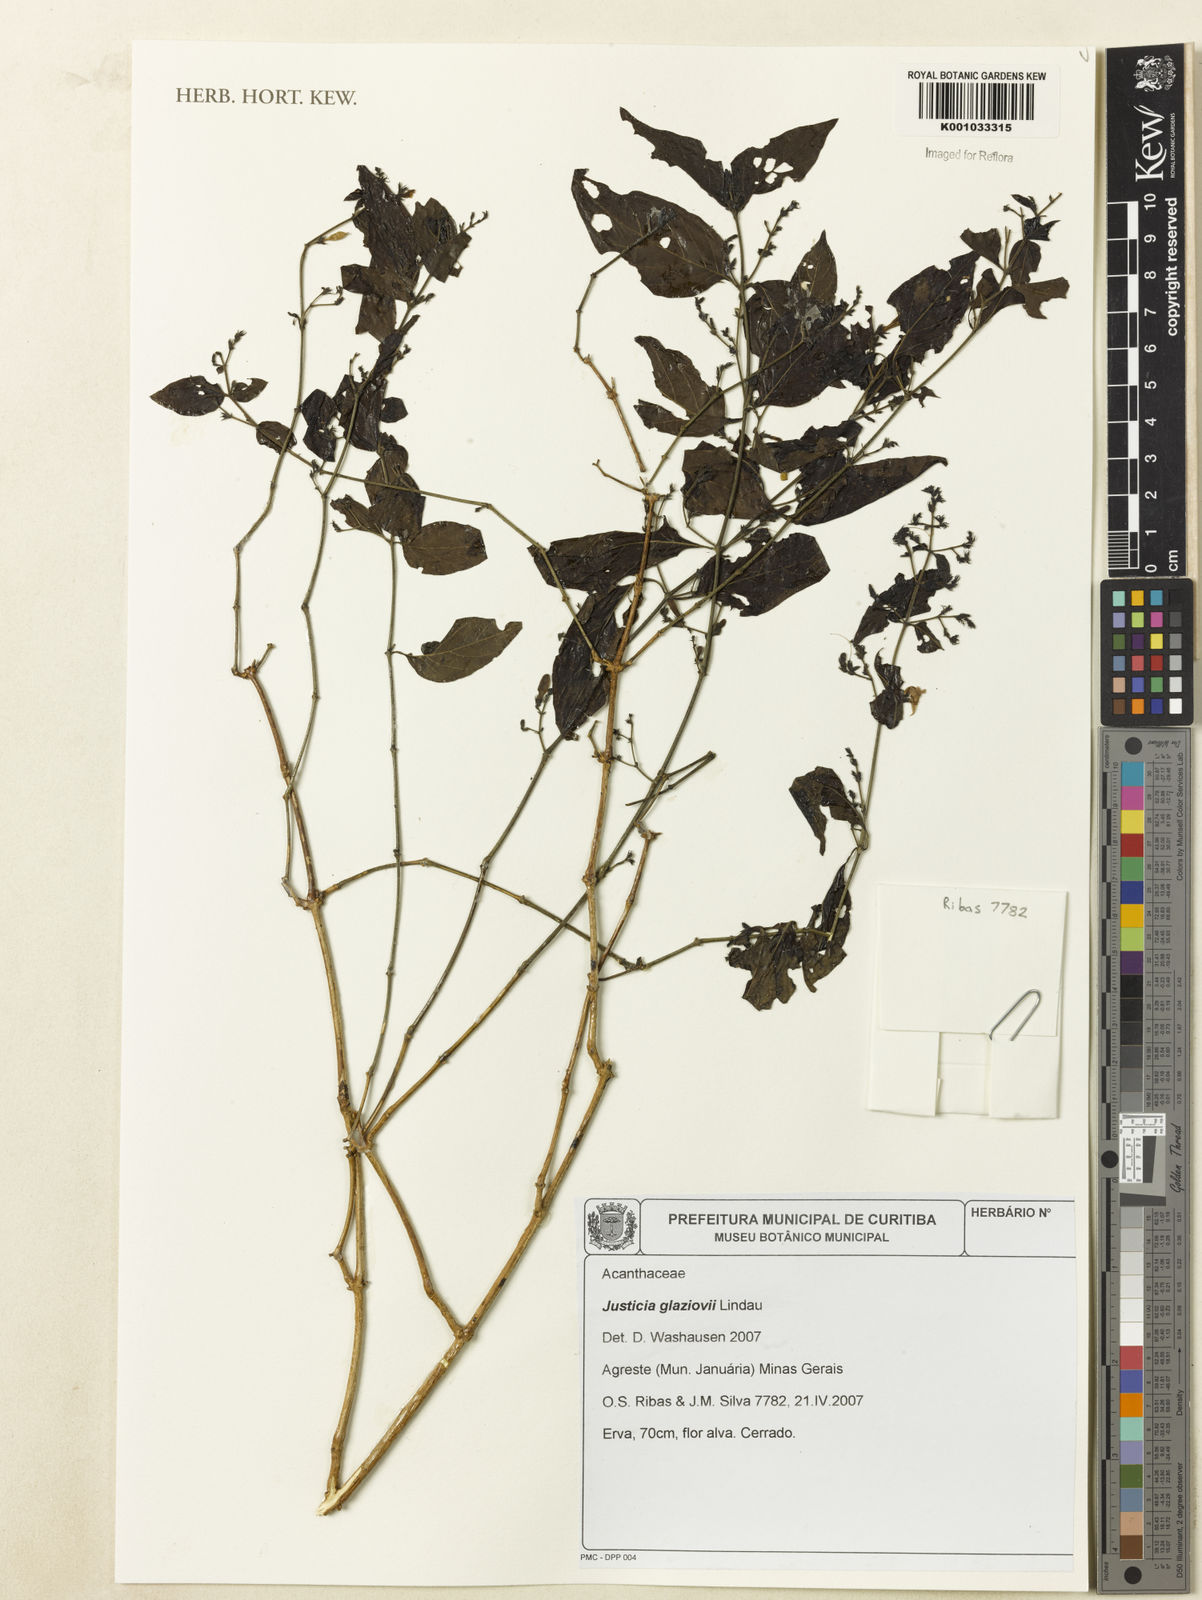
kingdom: Plantae
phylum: Tracheophyta
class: Magnoliopsida
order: Lamiales
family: Acanthaceae
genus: Justicia
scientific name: Justicia rubriflora
